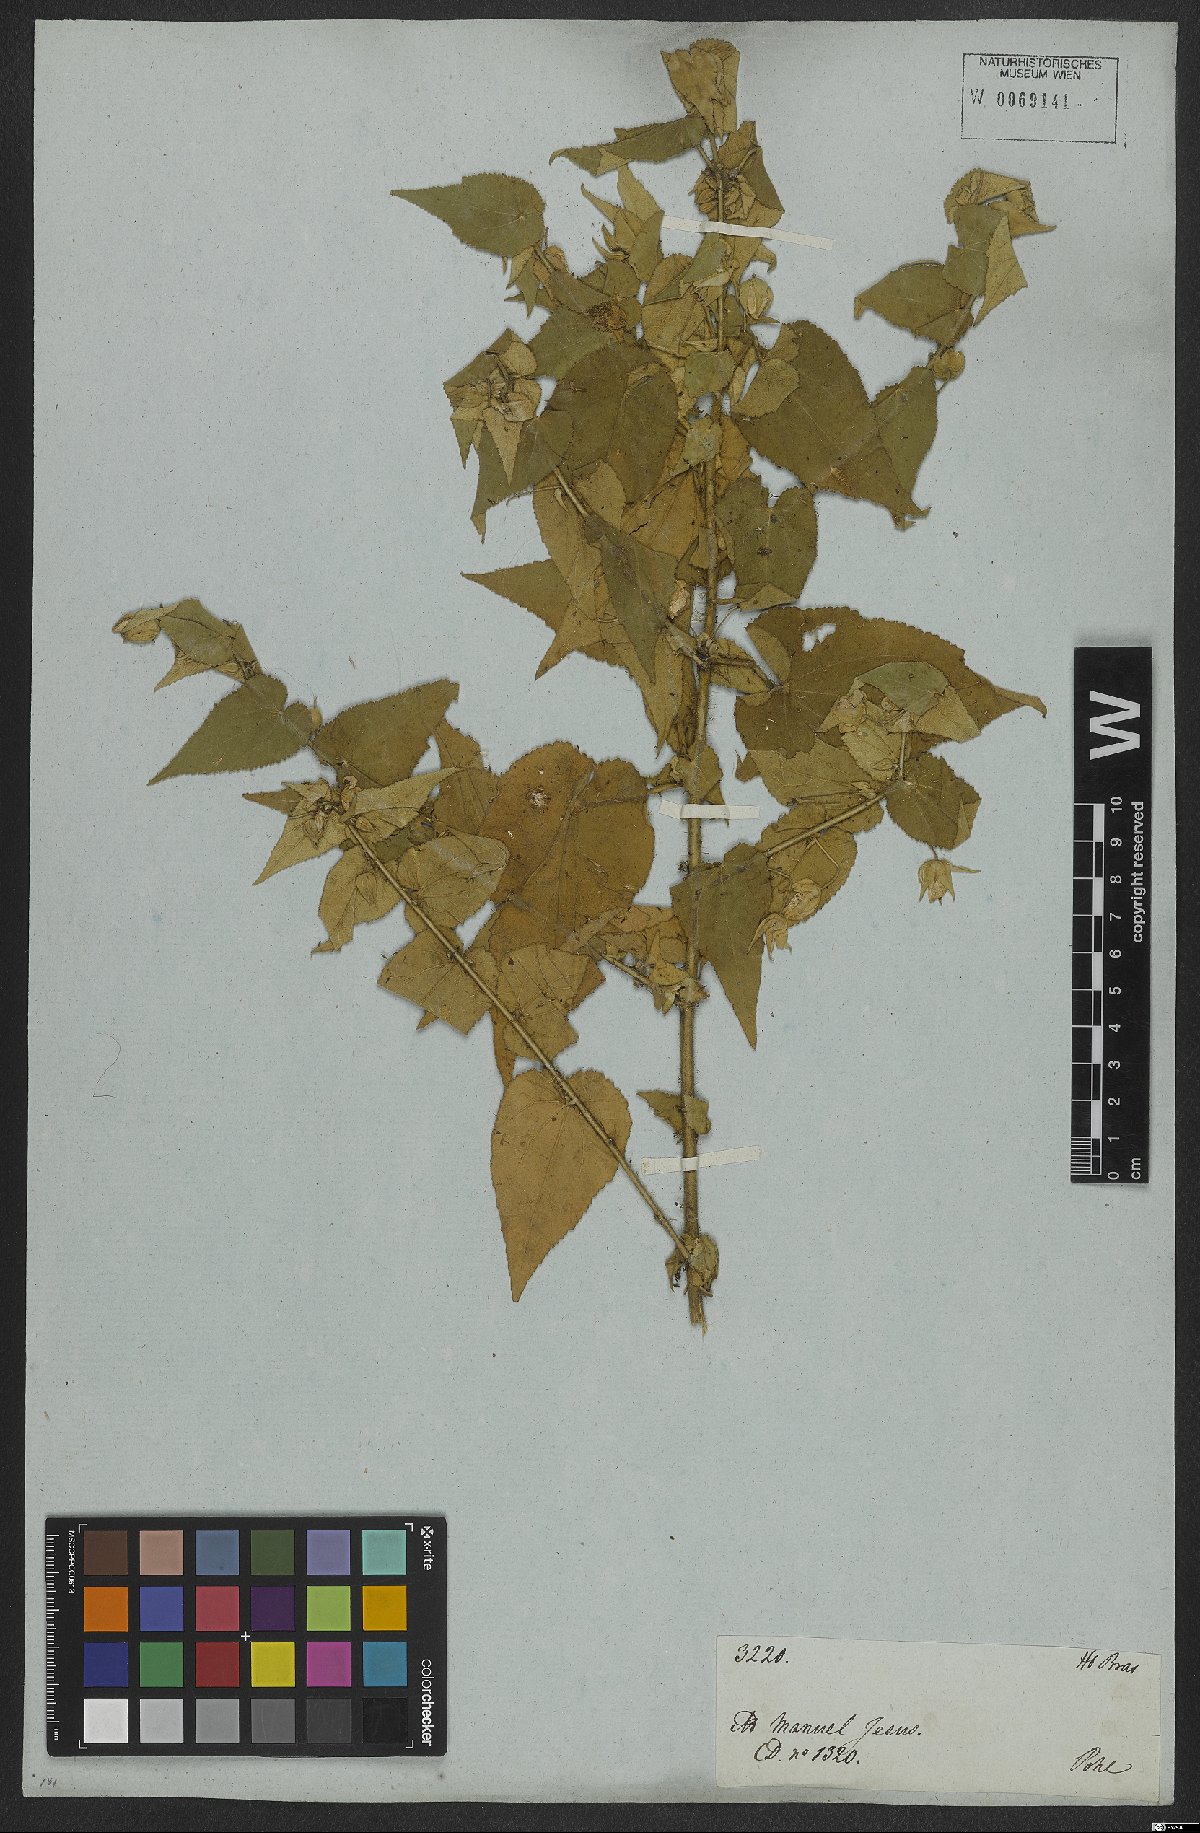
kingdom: Plantae
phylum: Tracheophyta
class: Magnoliopsida
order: Malvales
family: Malvaceae
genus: Herissantia
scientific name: Herissantia tiubae
